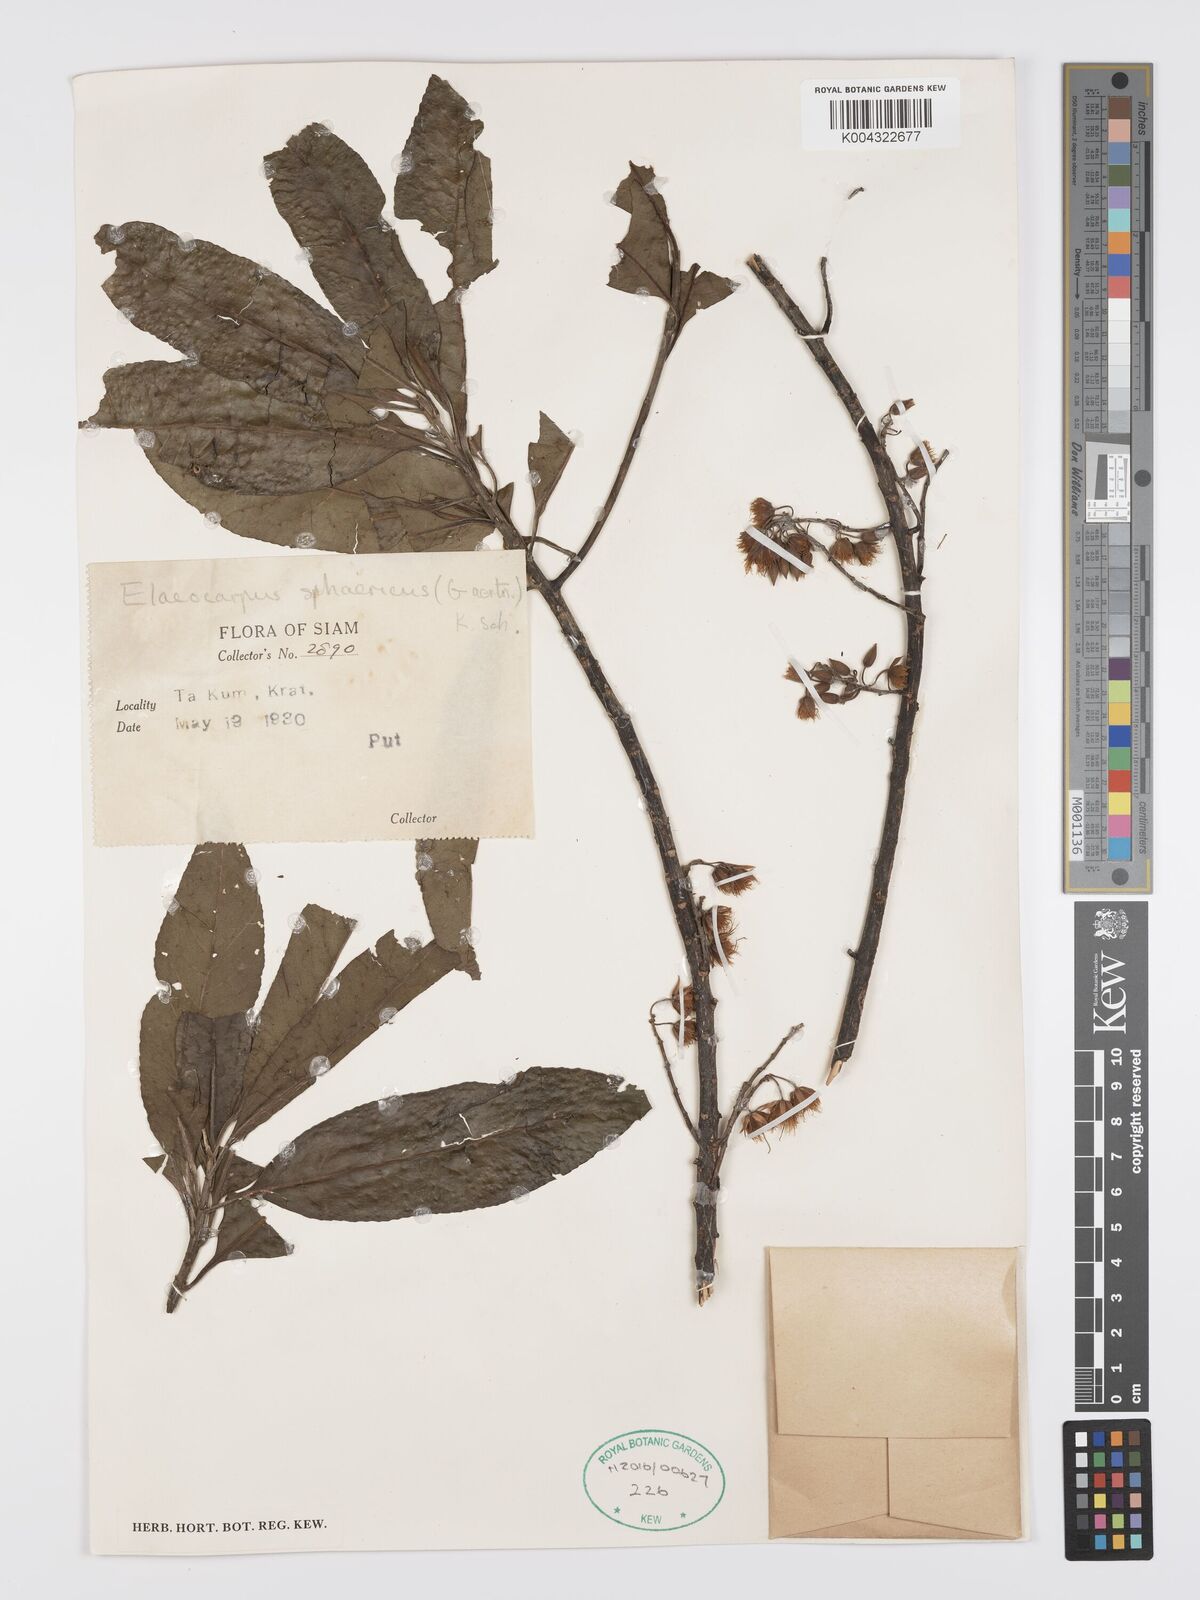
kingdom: Plantae
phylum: Tracheophyta
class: Magnoliopsida
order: Oxalidales
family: Elaeocarpaceae
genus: Elaeocarpus
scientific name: Elaeocarpus
